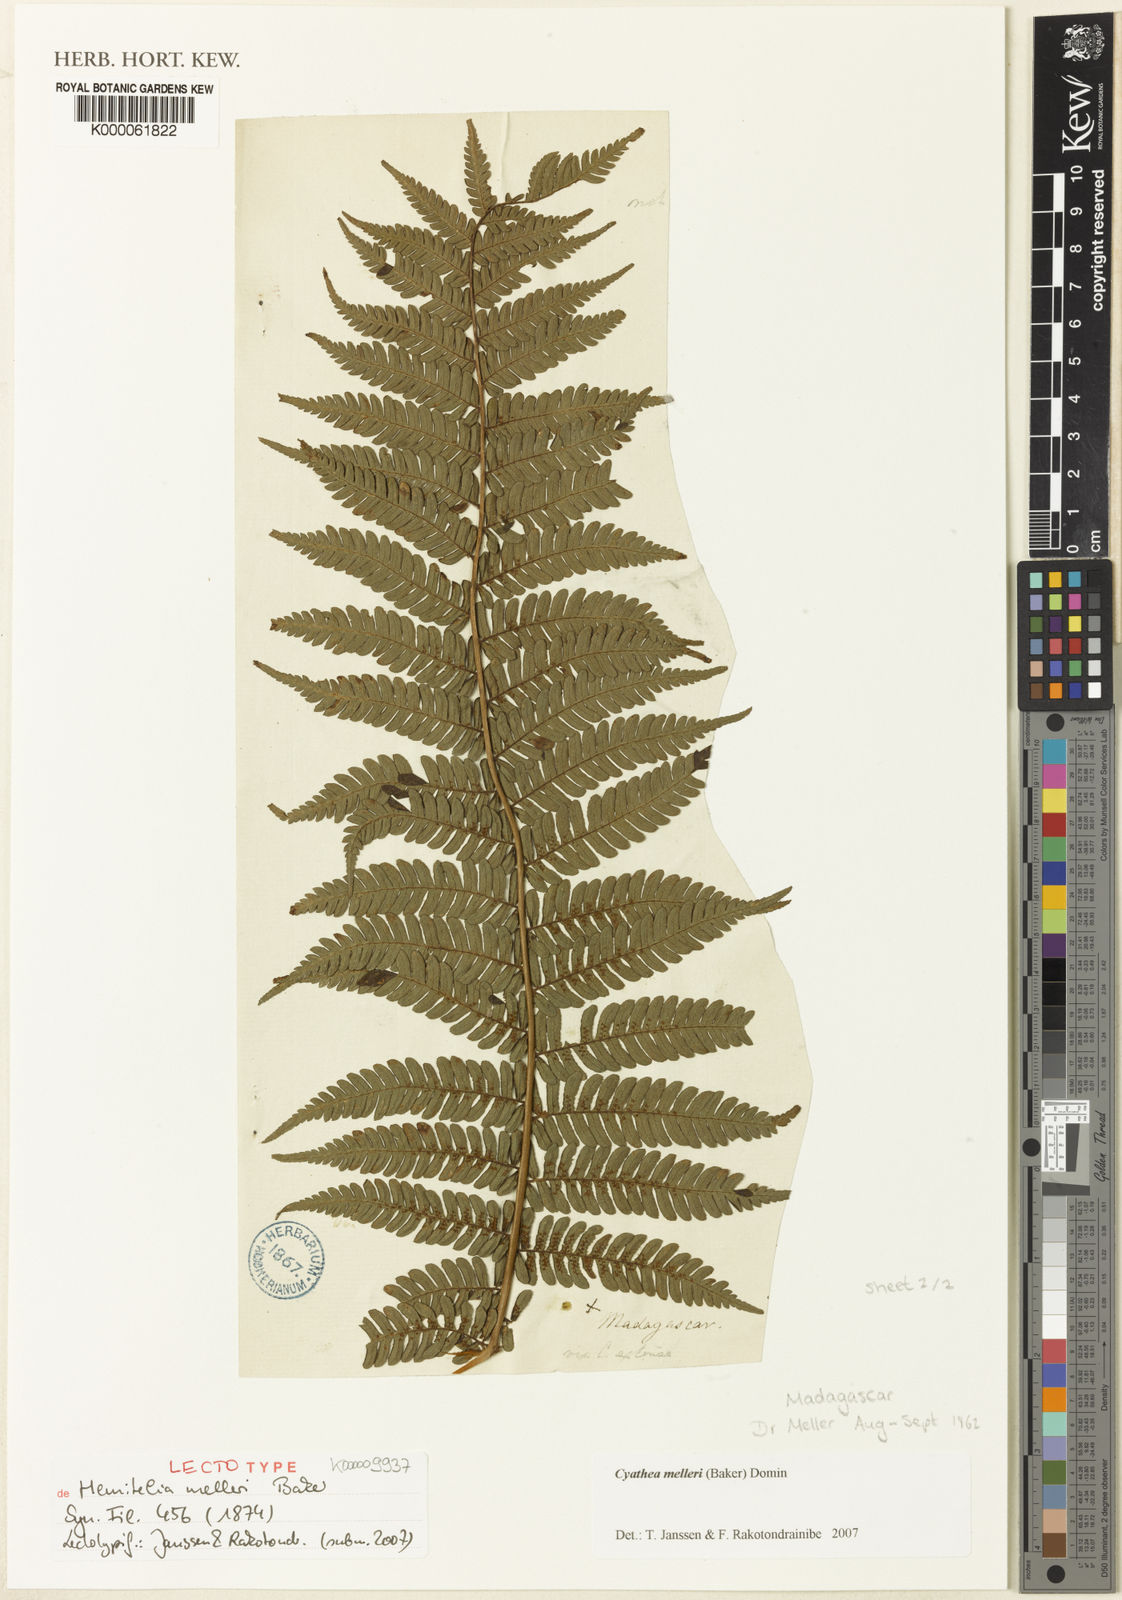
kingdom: Plantae
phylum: Tracheophyta
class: Polypodiopsida
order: Cyatheales
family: Cyatheaceae
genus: Alsophila
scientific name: Alsophila melleri
